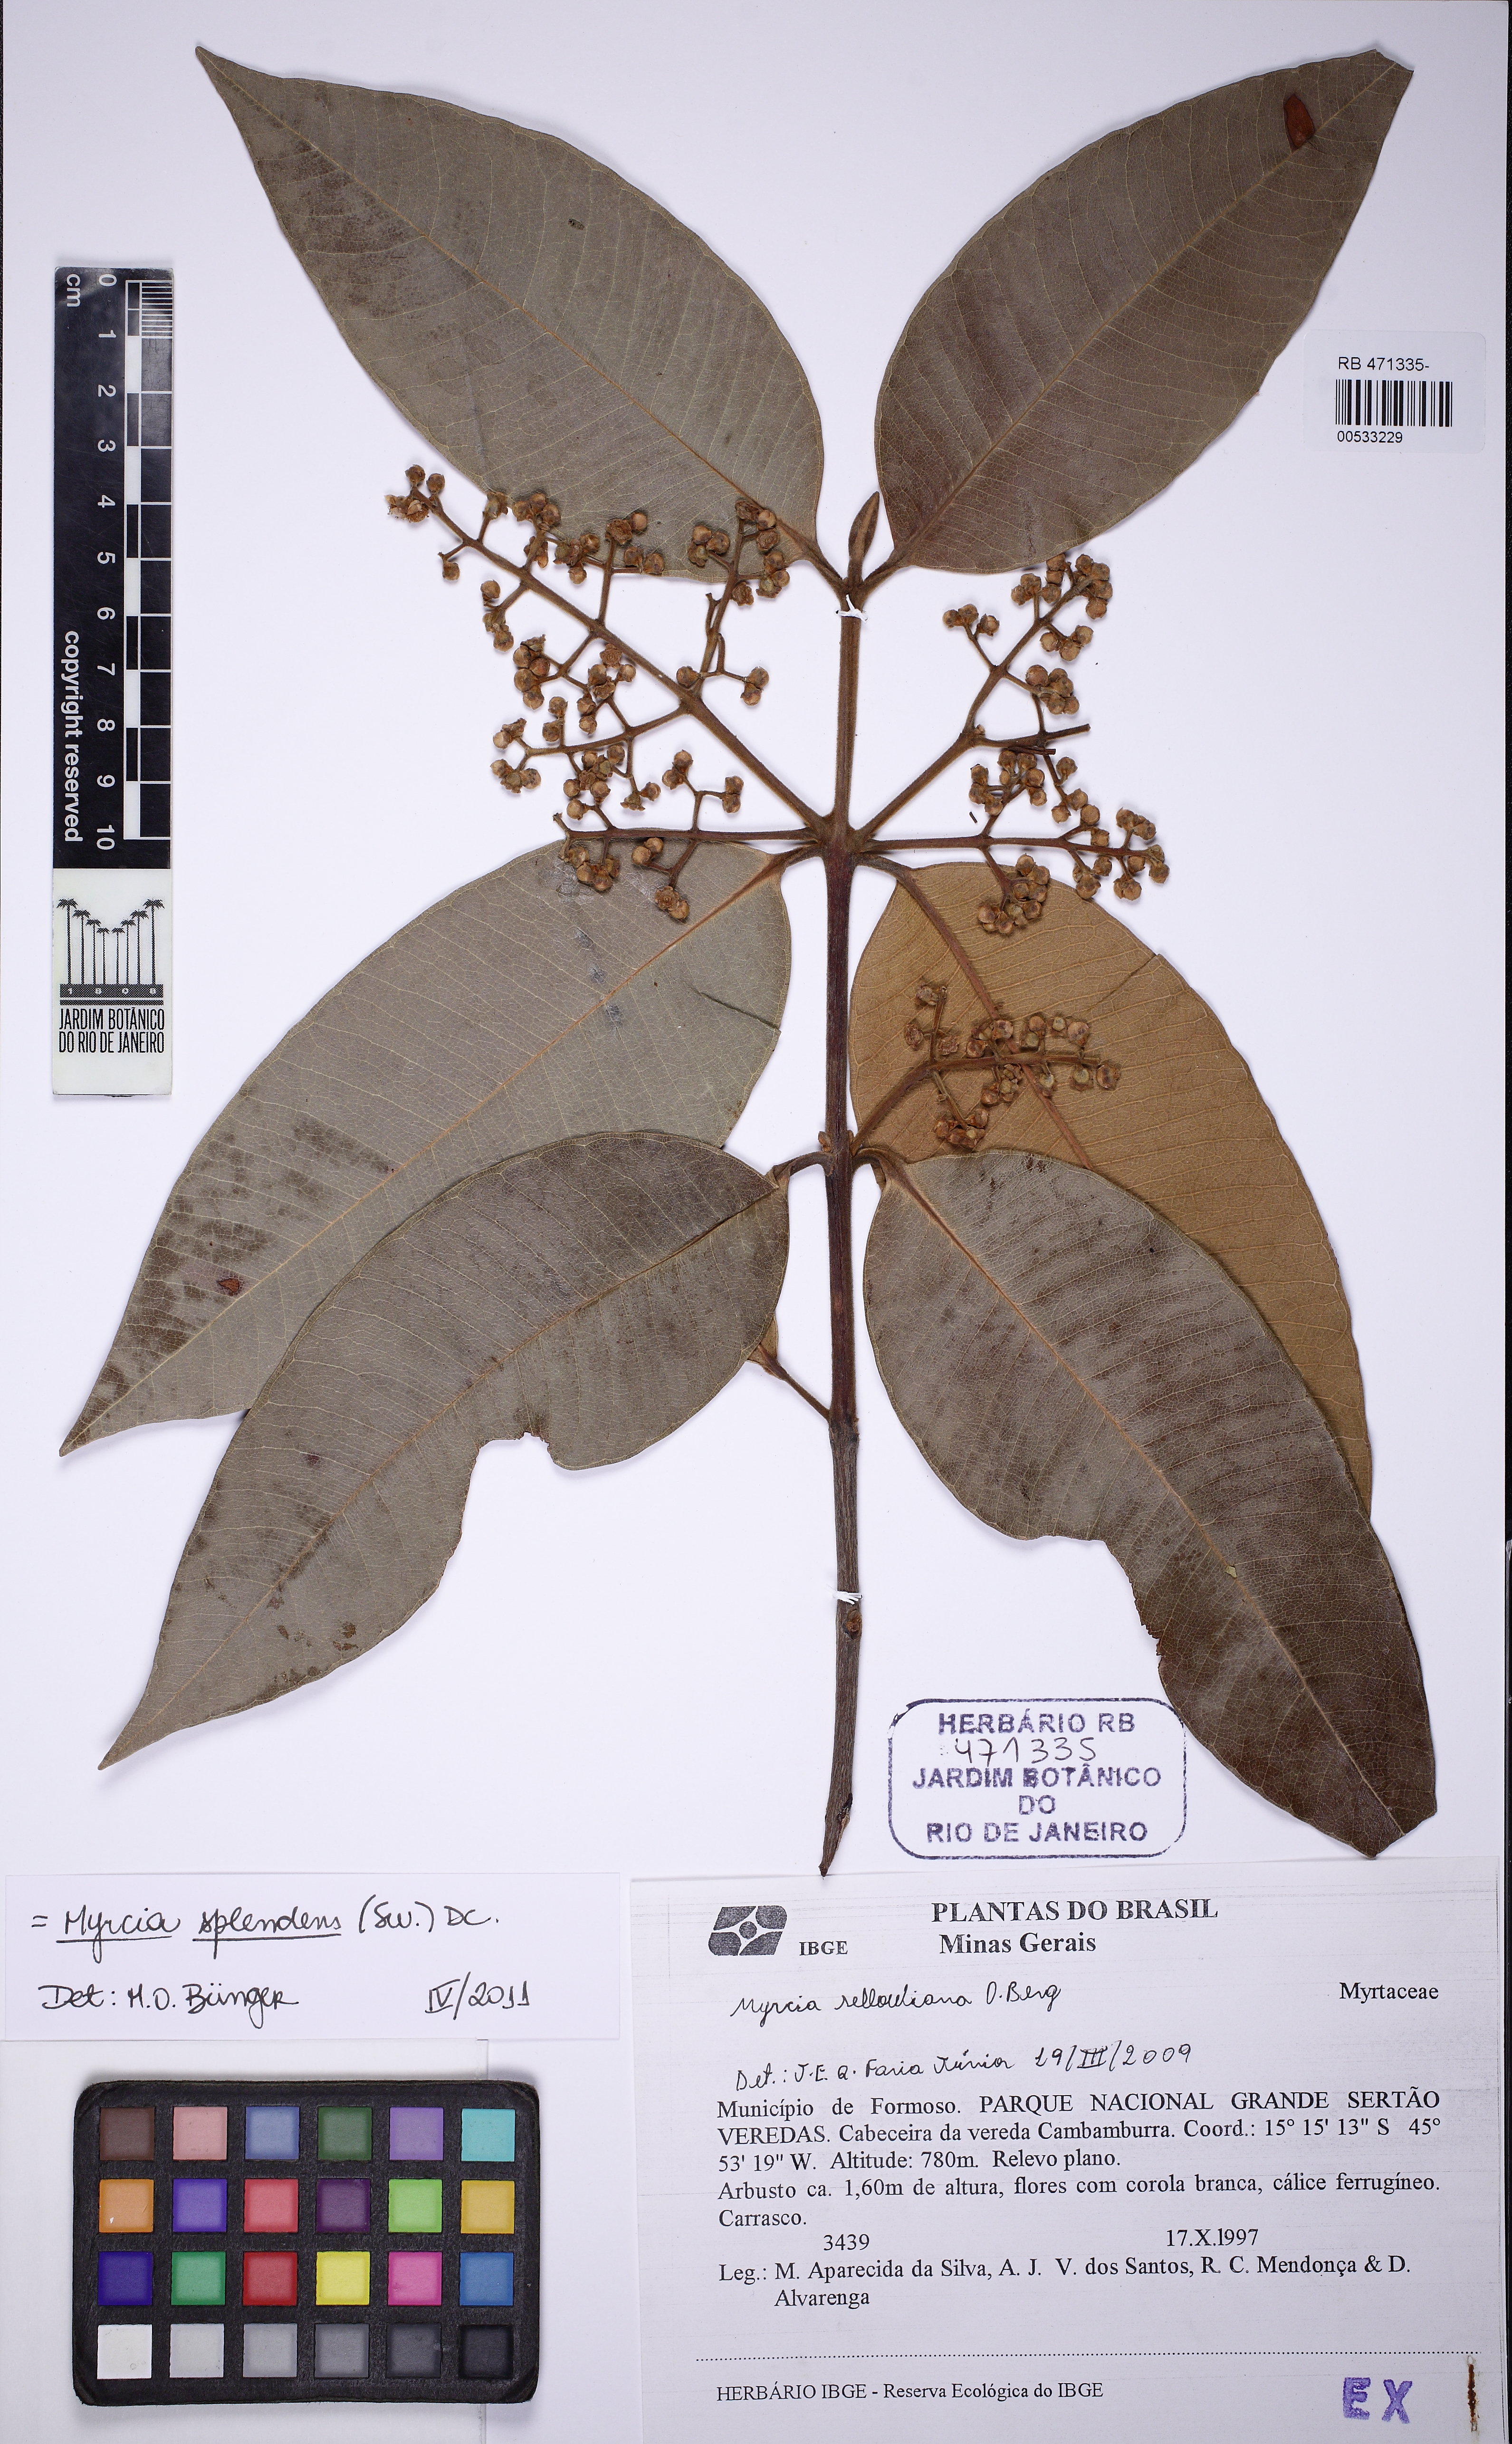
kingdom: Plantae
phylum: Tracheophyta
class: Magnoliopsida
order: Myrtales
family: Myrtaceae
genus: Myrcia
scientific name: Myrcia splendens
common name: Surinam cherry
